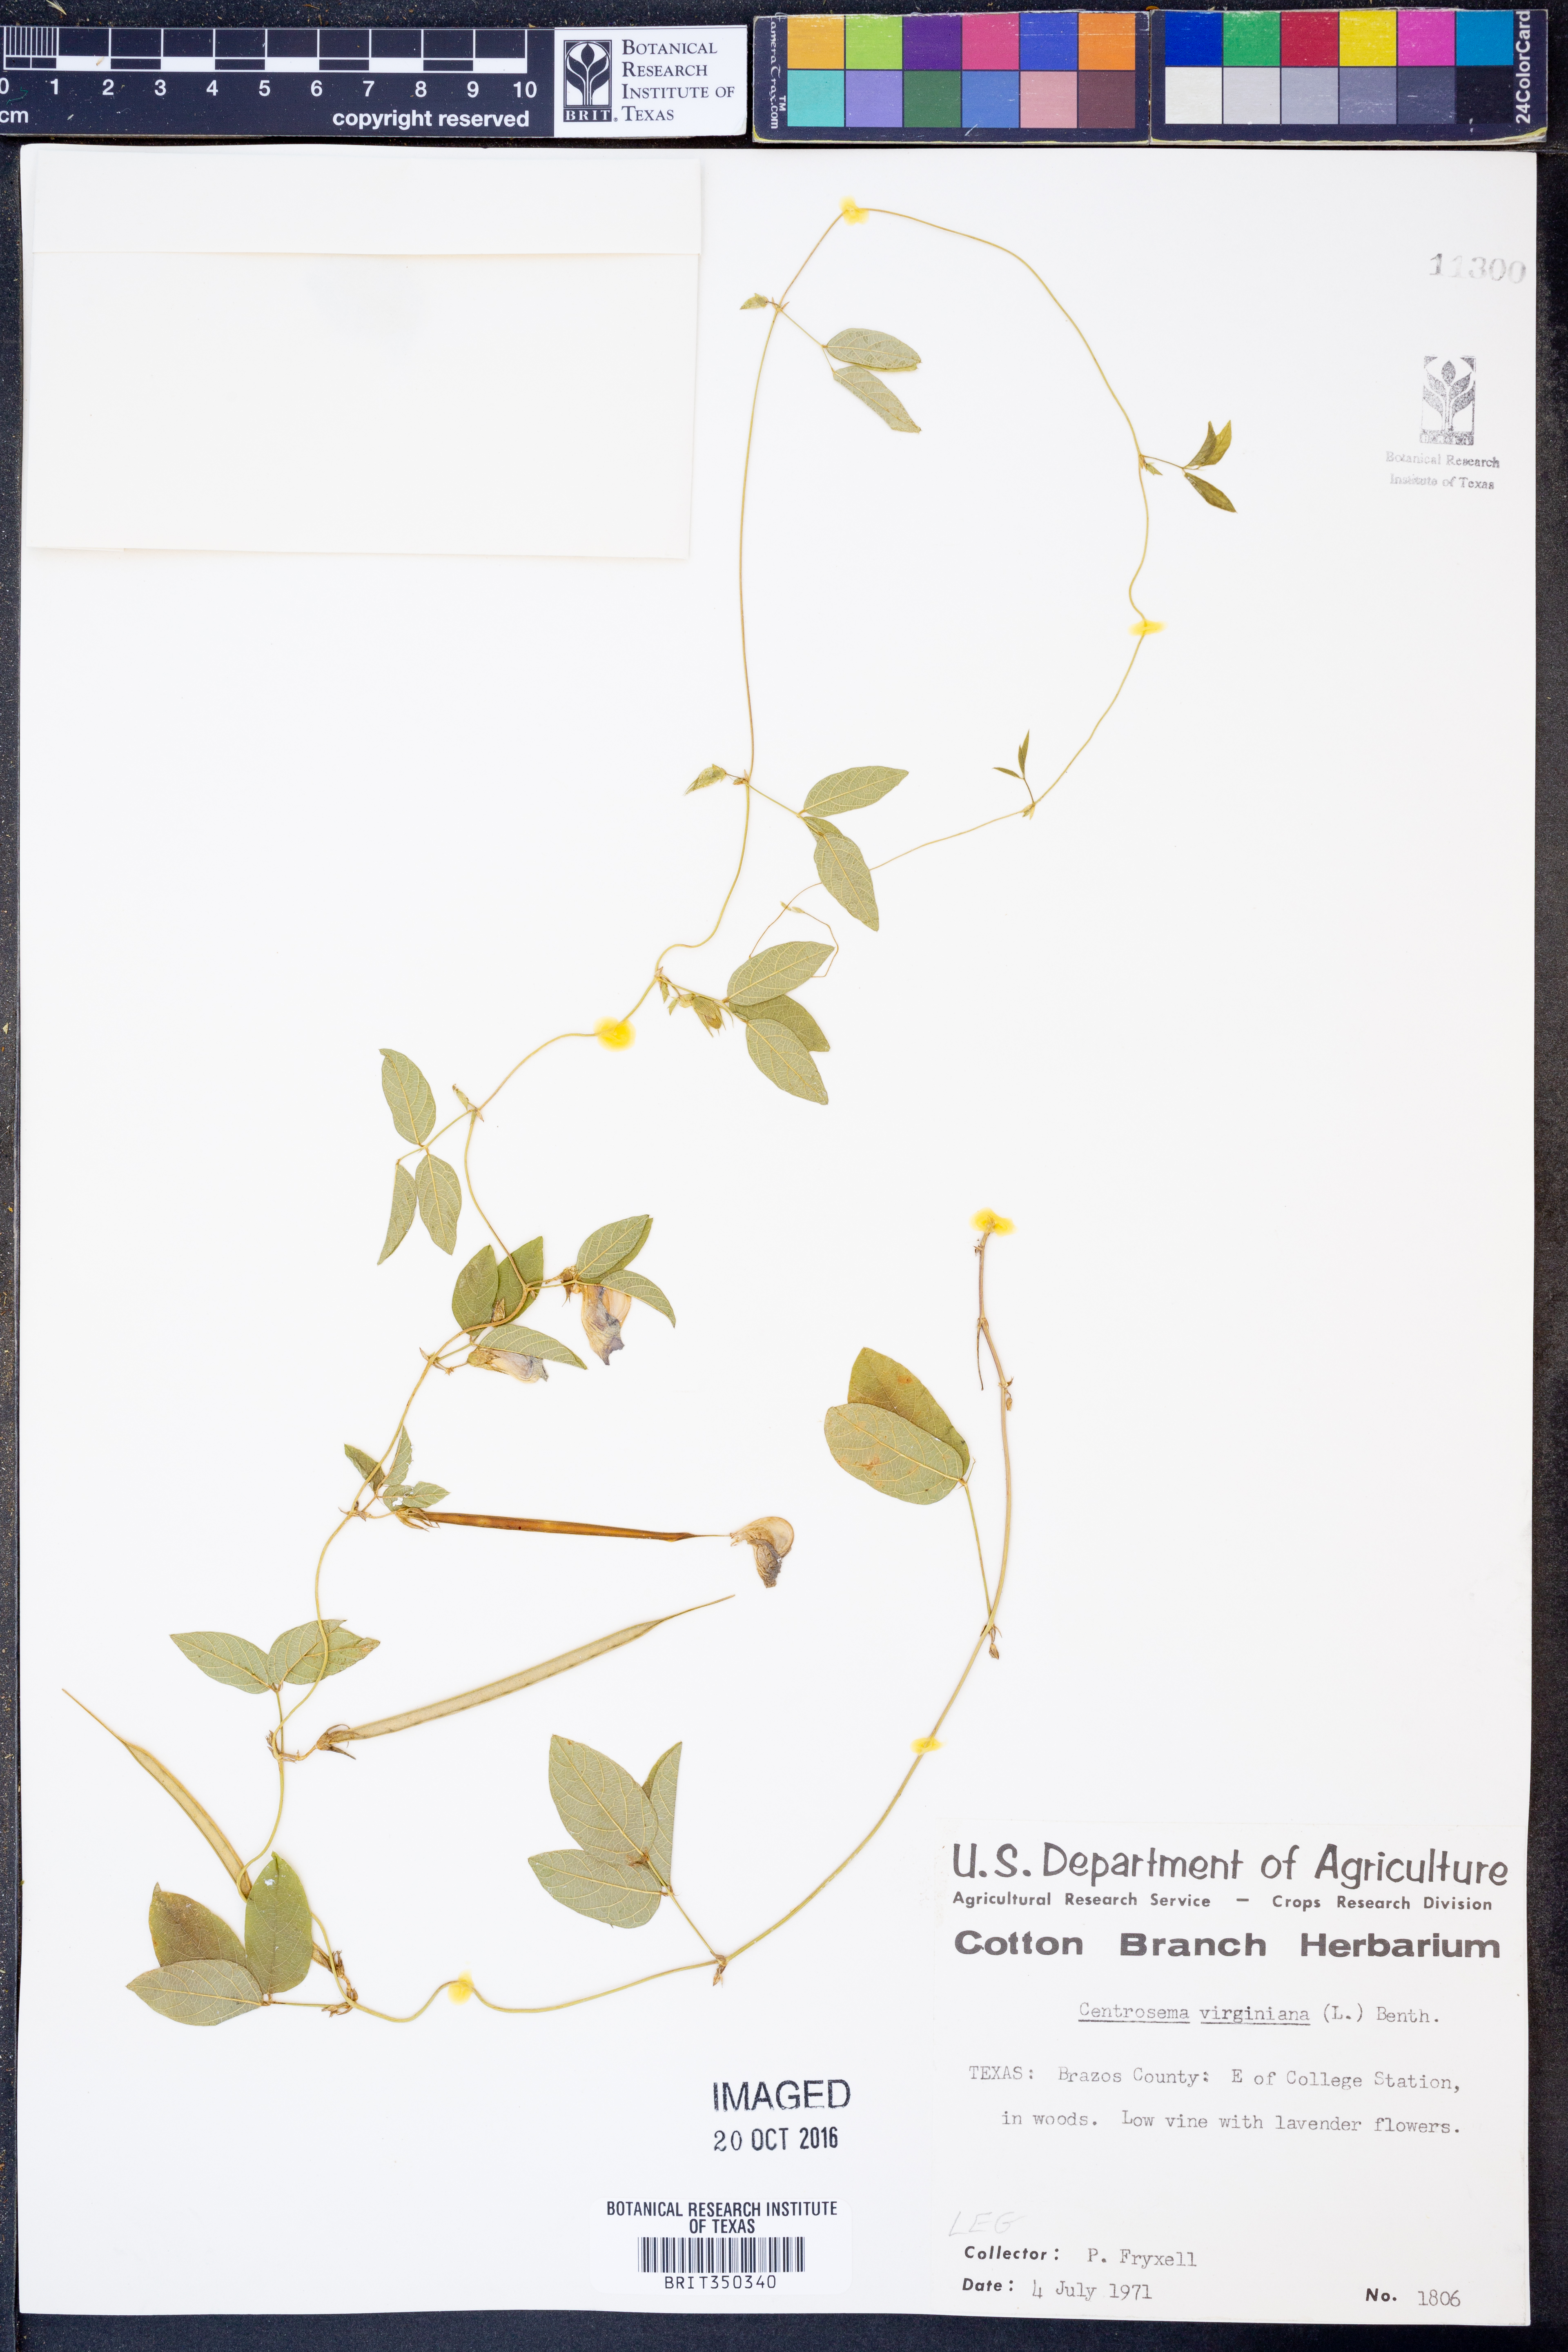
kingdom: Plantae
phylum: Tracheophyta
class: Magnoliopsida
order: Fabales
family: Fabaceae
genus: Centrosema
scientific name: Centrosema virginianum
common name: Butterfly-pea
